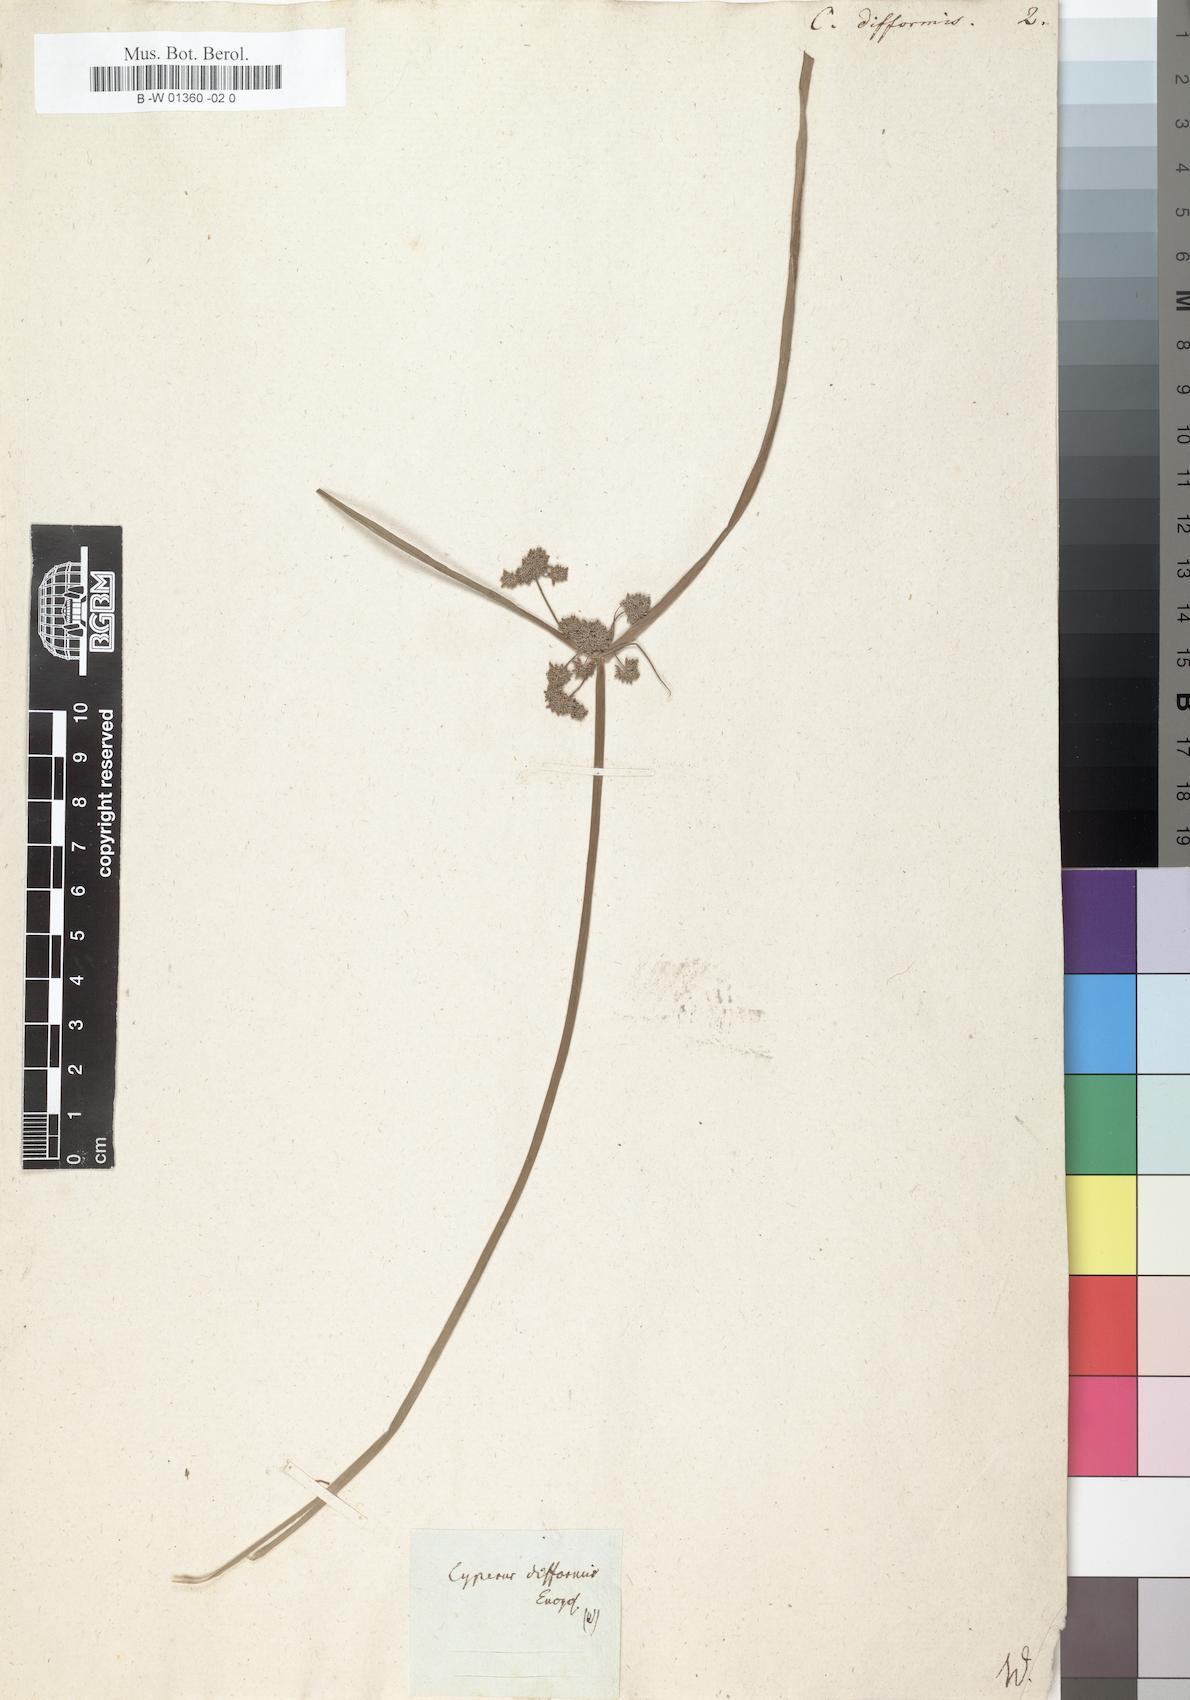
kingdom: Plantae
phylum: Tracheophyta
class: Liliopsida
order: Poales
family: Cyperaceae
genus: Cyperus
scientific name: Cyperus difformis
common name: Variable flatsedge
